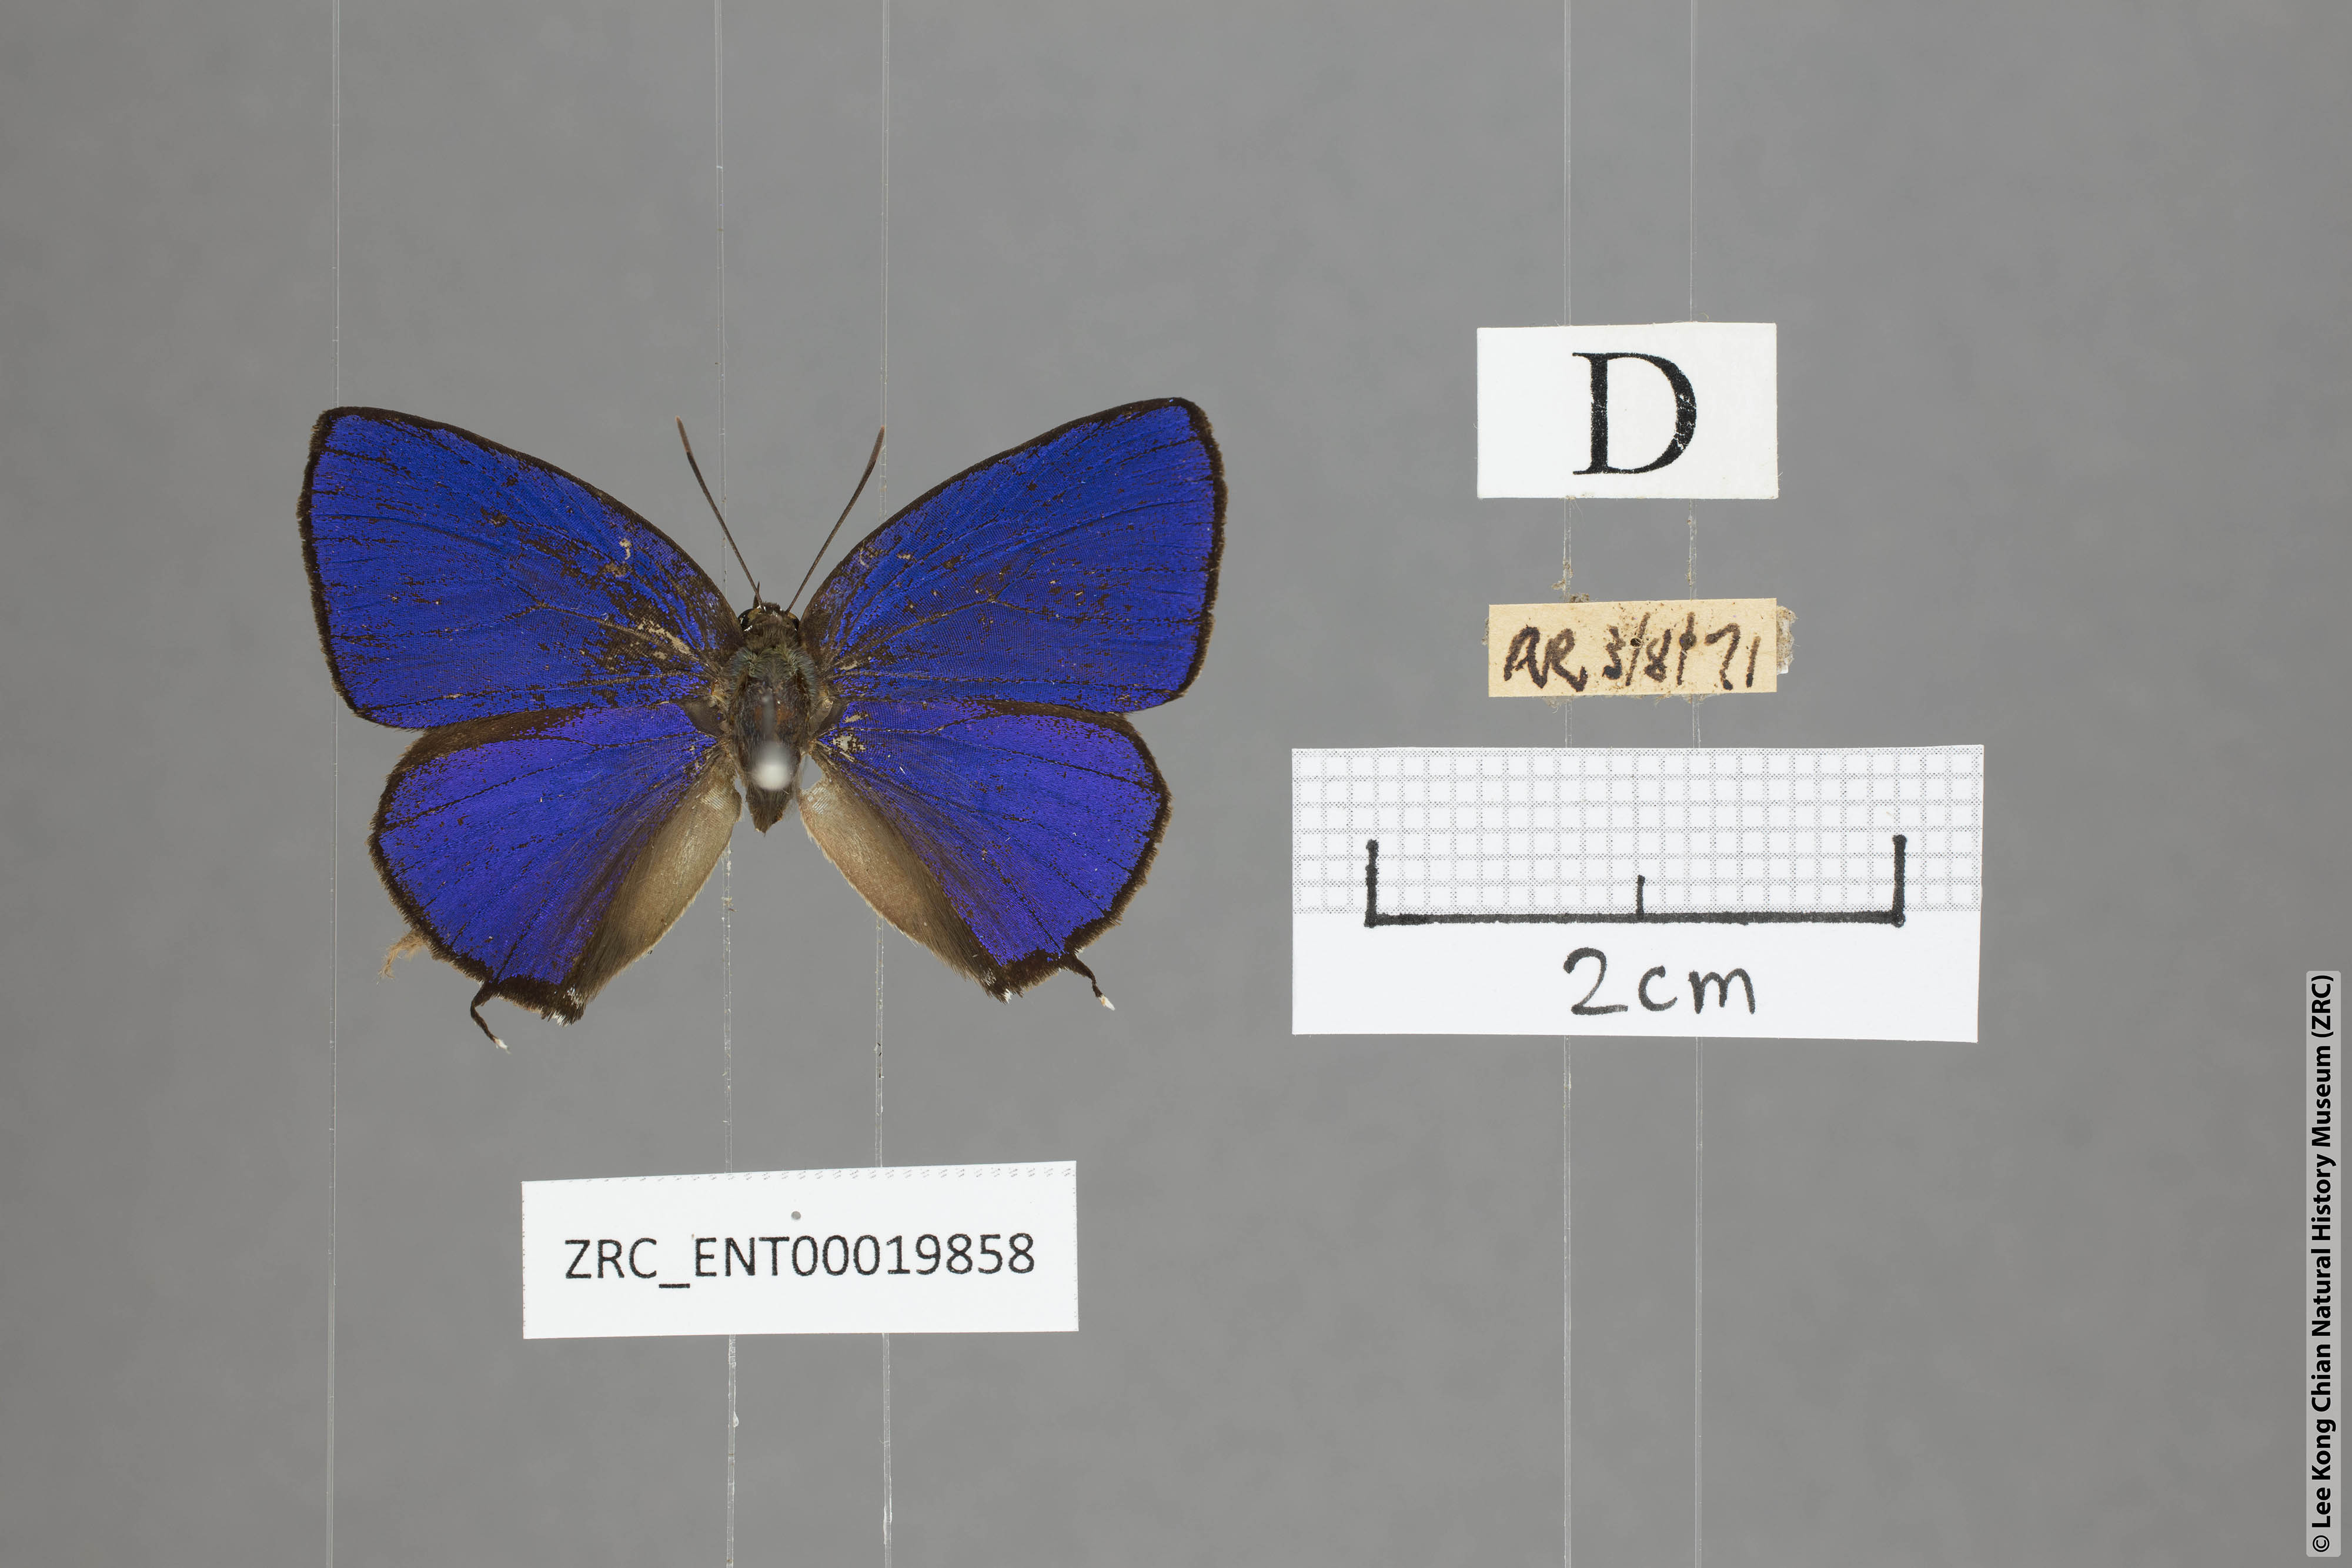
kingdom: Animalia
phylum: Arthropoda
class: Insecta
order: Lepidoptera
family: Lycaenidae
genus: Arhopala
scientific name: Arhopala sublustris
